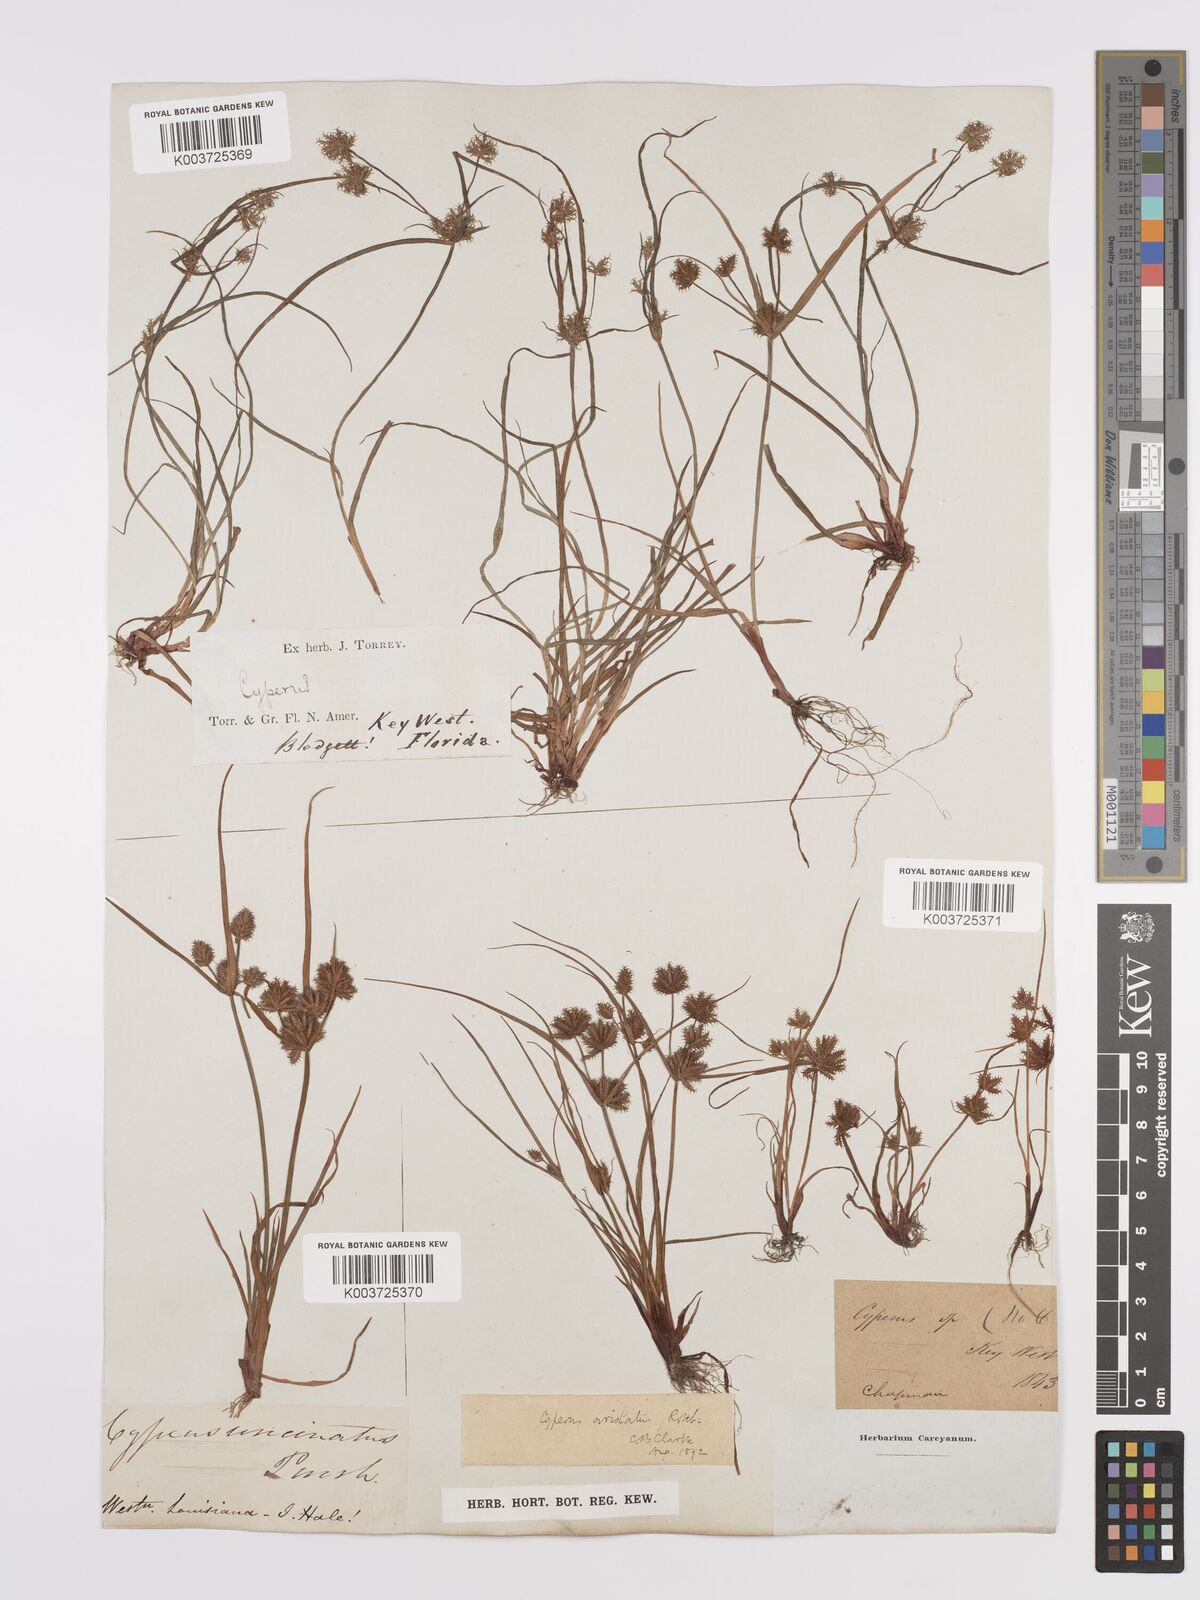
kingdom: Plantae
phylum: Tracheophyta
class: Liliopsida
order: Poales
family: Cyperaceae
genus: Cyperus
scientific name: Cyperus squarrosus
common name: Awned cyperus
